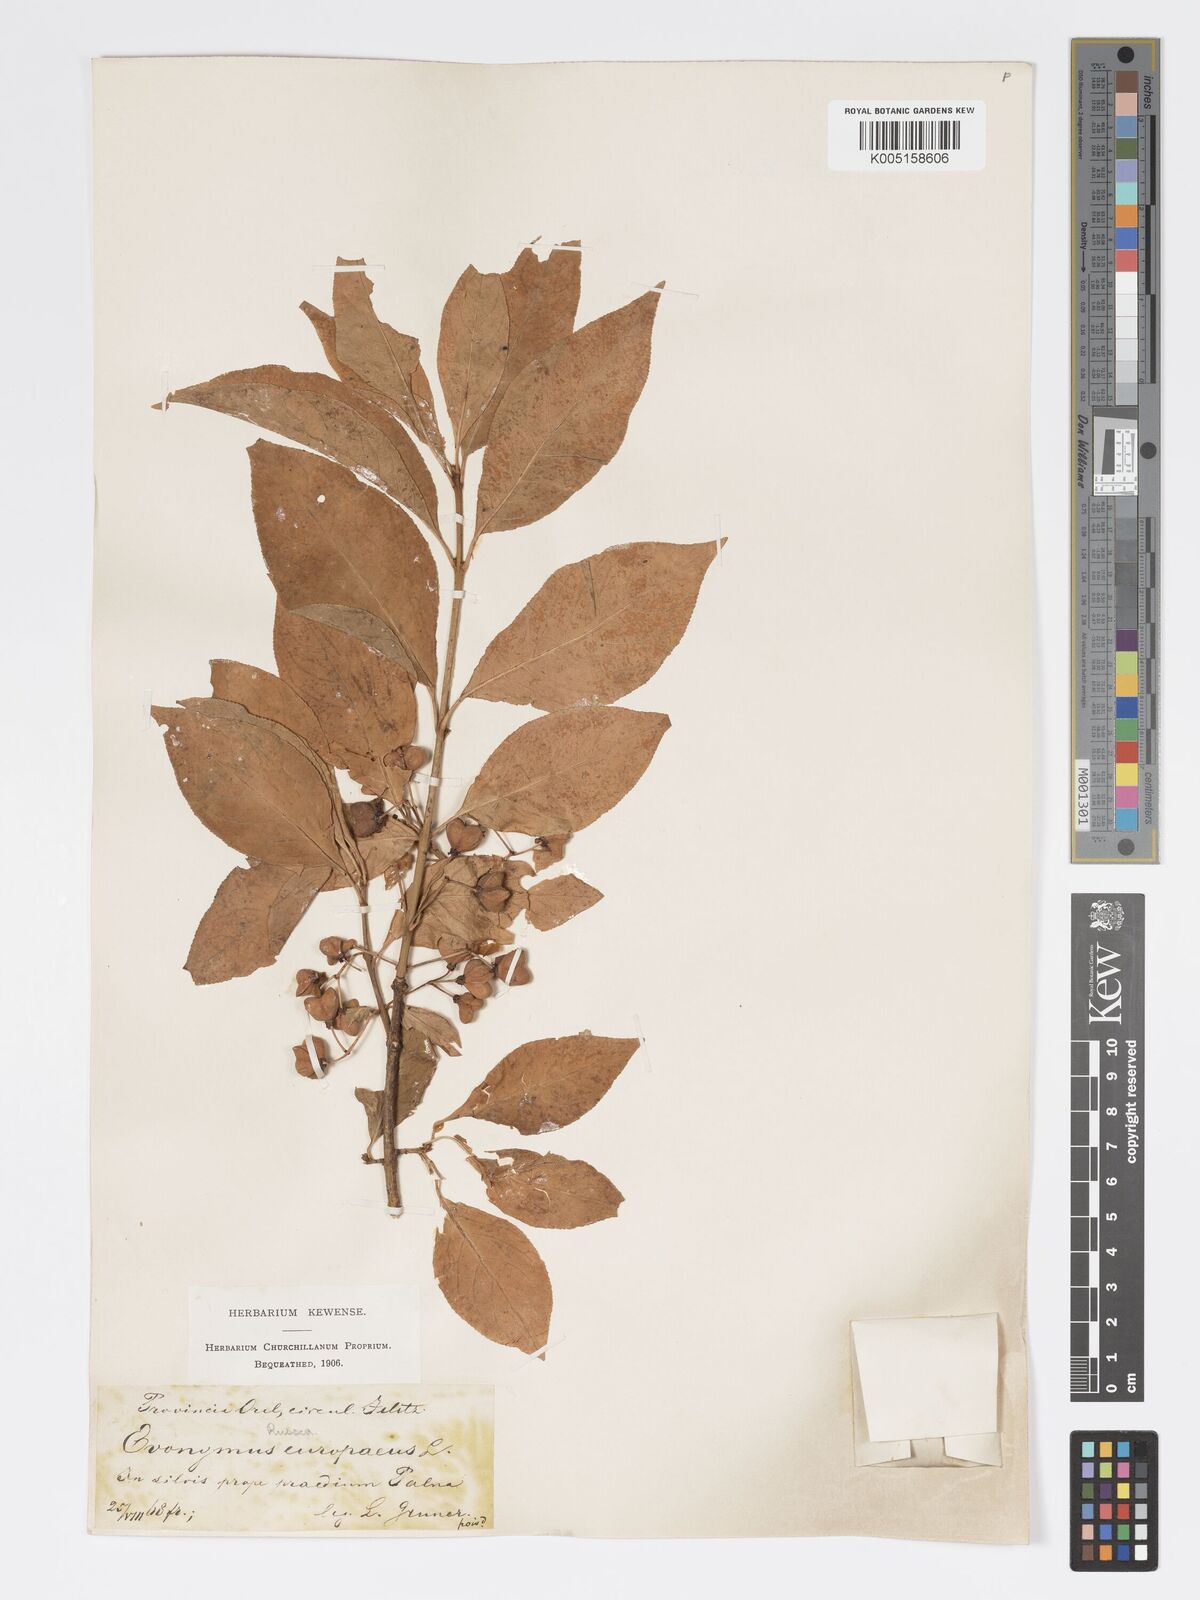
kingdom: Plantae
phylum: Tracheophyta
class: Magnoliopsida
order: Celastrales
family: Celastraceae
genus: Euonymus
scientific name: Euonymus europaeus
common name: Spindle
